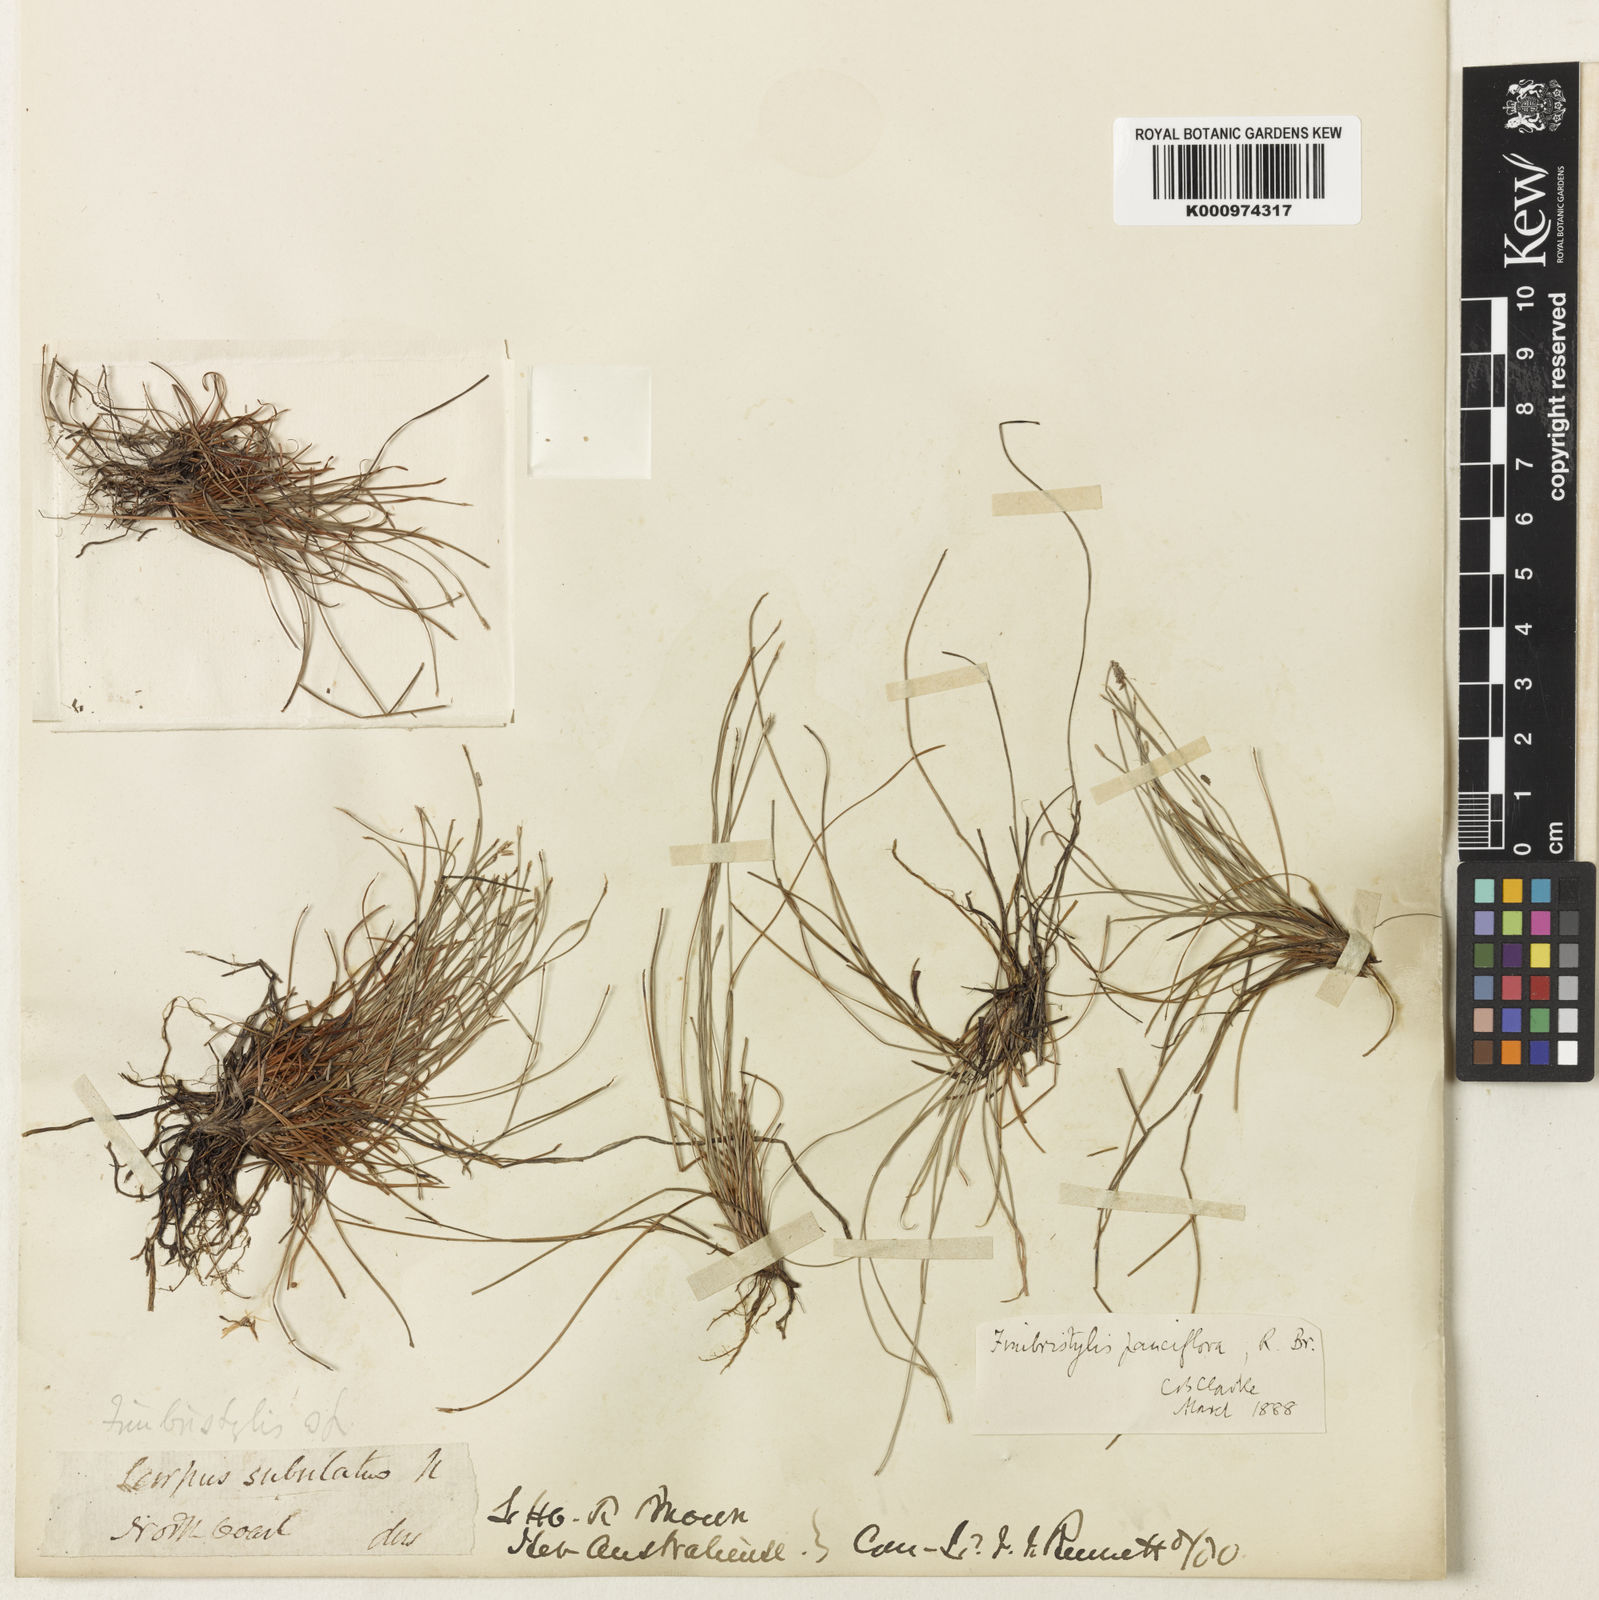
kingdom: Plantae
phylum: Tracheophyta
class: Liliopsida
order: Poales
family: Cyperaceae
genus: Fimbristylis
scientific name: Fimbristylis pauciflora
